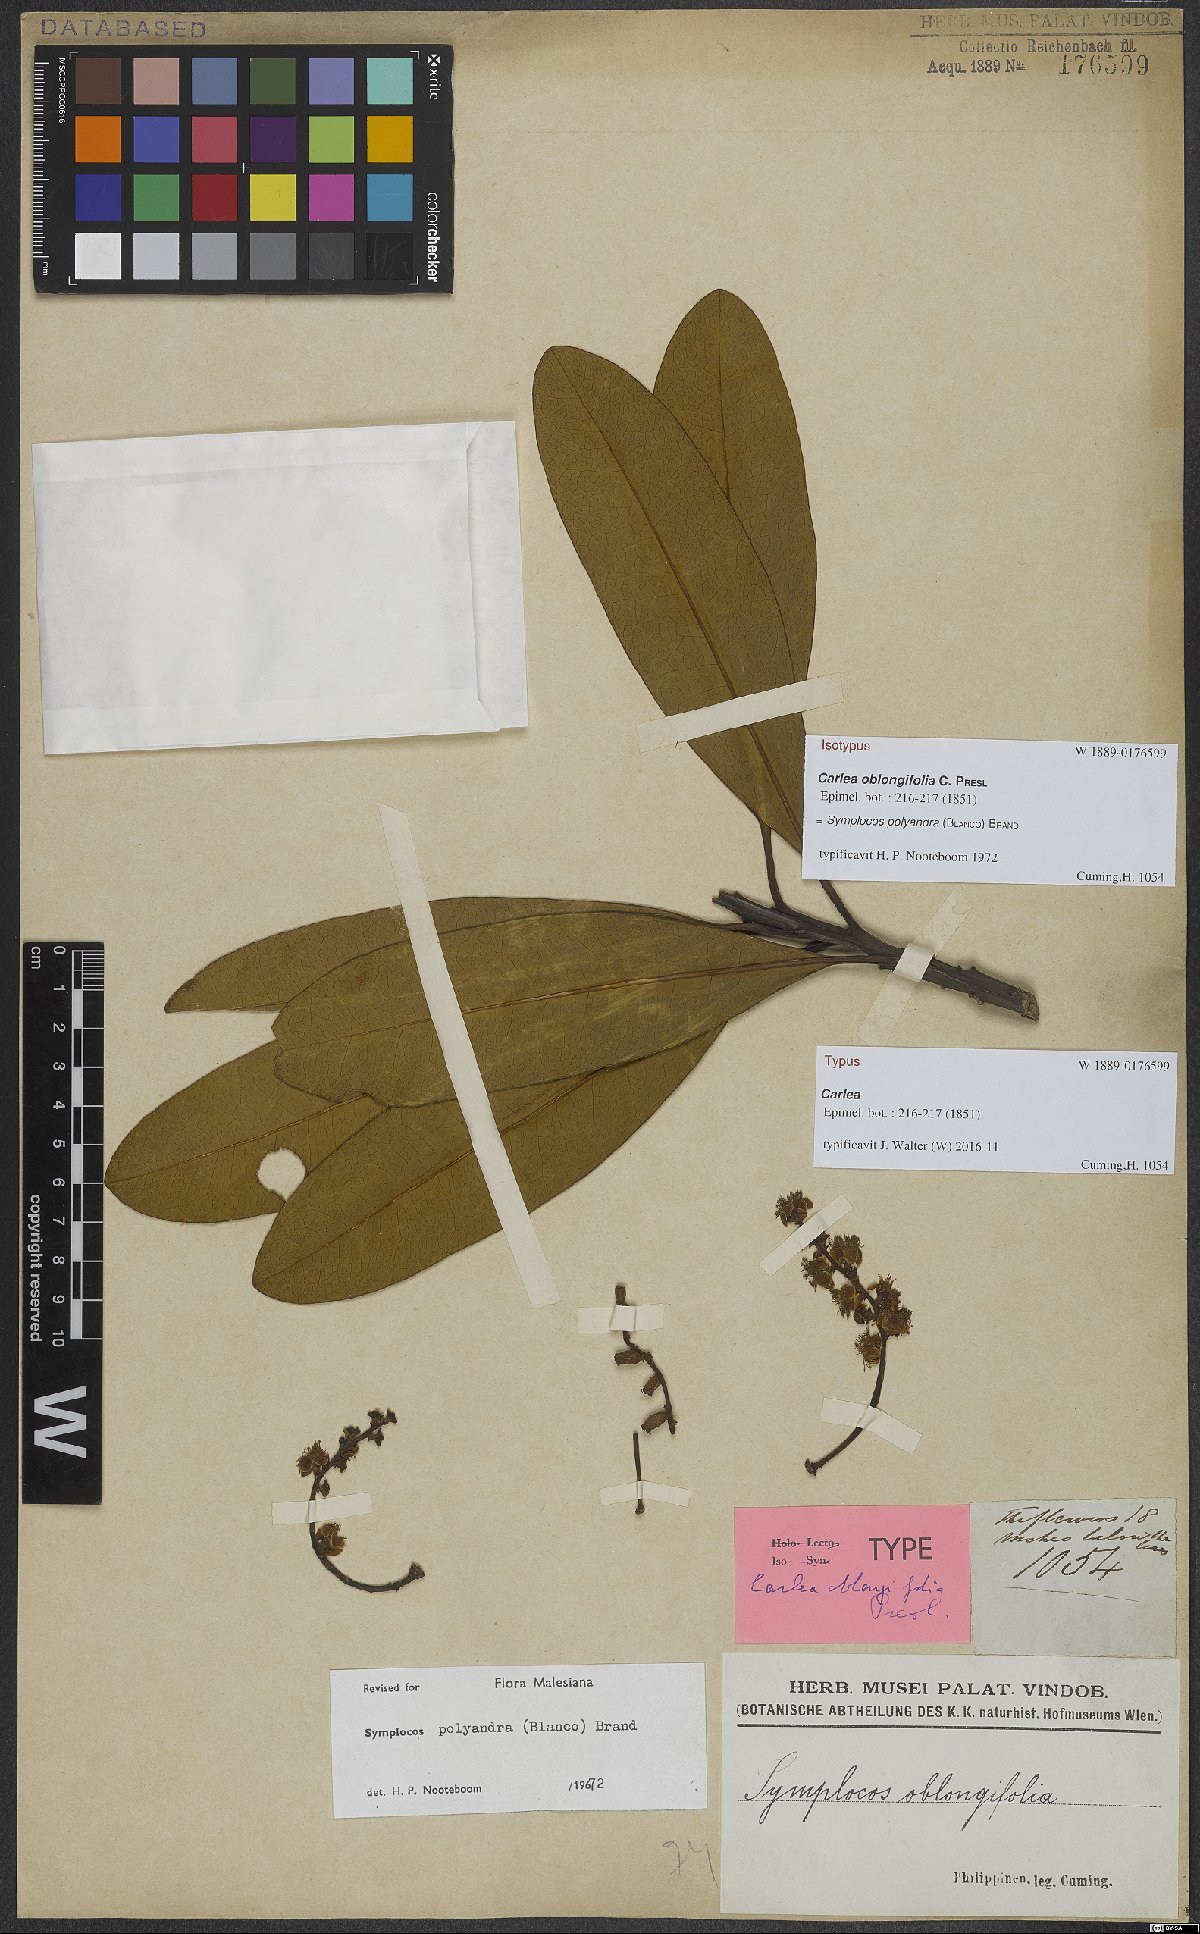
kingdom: Plantae
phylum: Tracheophyta
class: Magnoliopsida
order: Ericales
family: Symplocaceae
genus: Symplocos
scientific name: Symplocos polyandra
